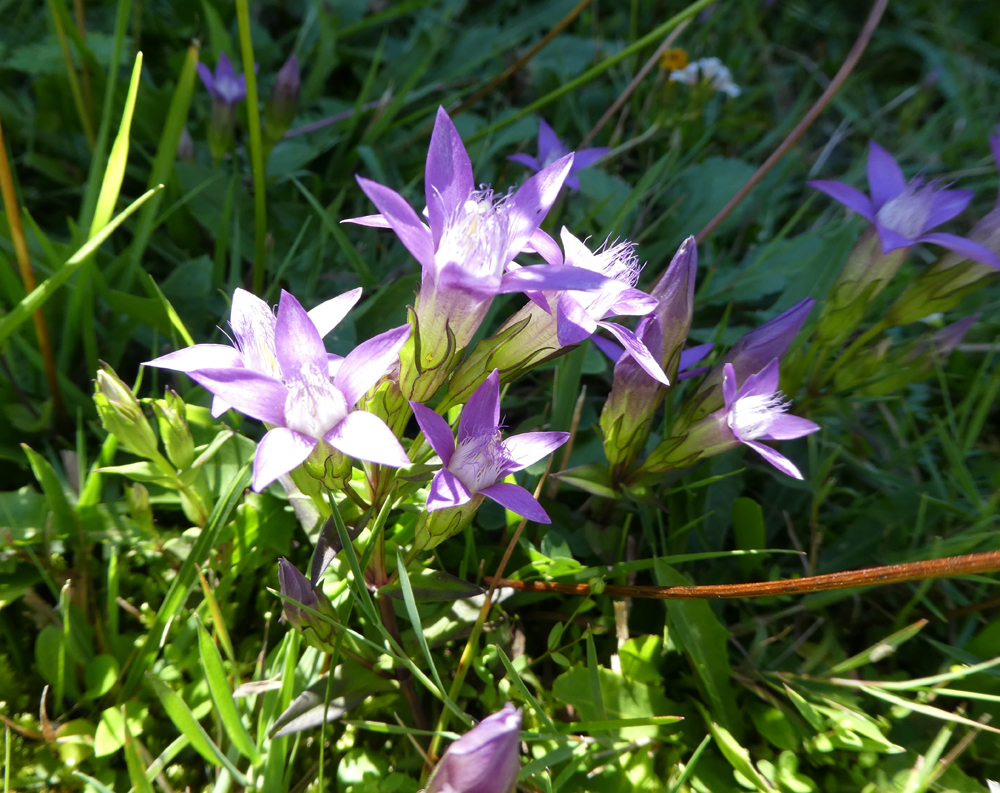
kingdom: Plantae
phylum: Tracheophyta
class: Magnoliopsida
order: Gentianales
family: Gentianaceae
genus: Gentianella
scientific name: Gentianella germanica
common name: Chiltern-gentian
